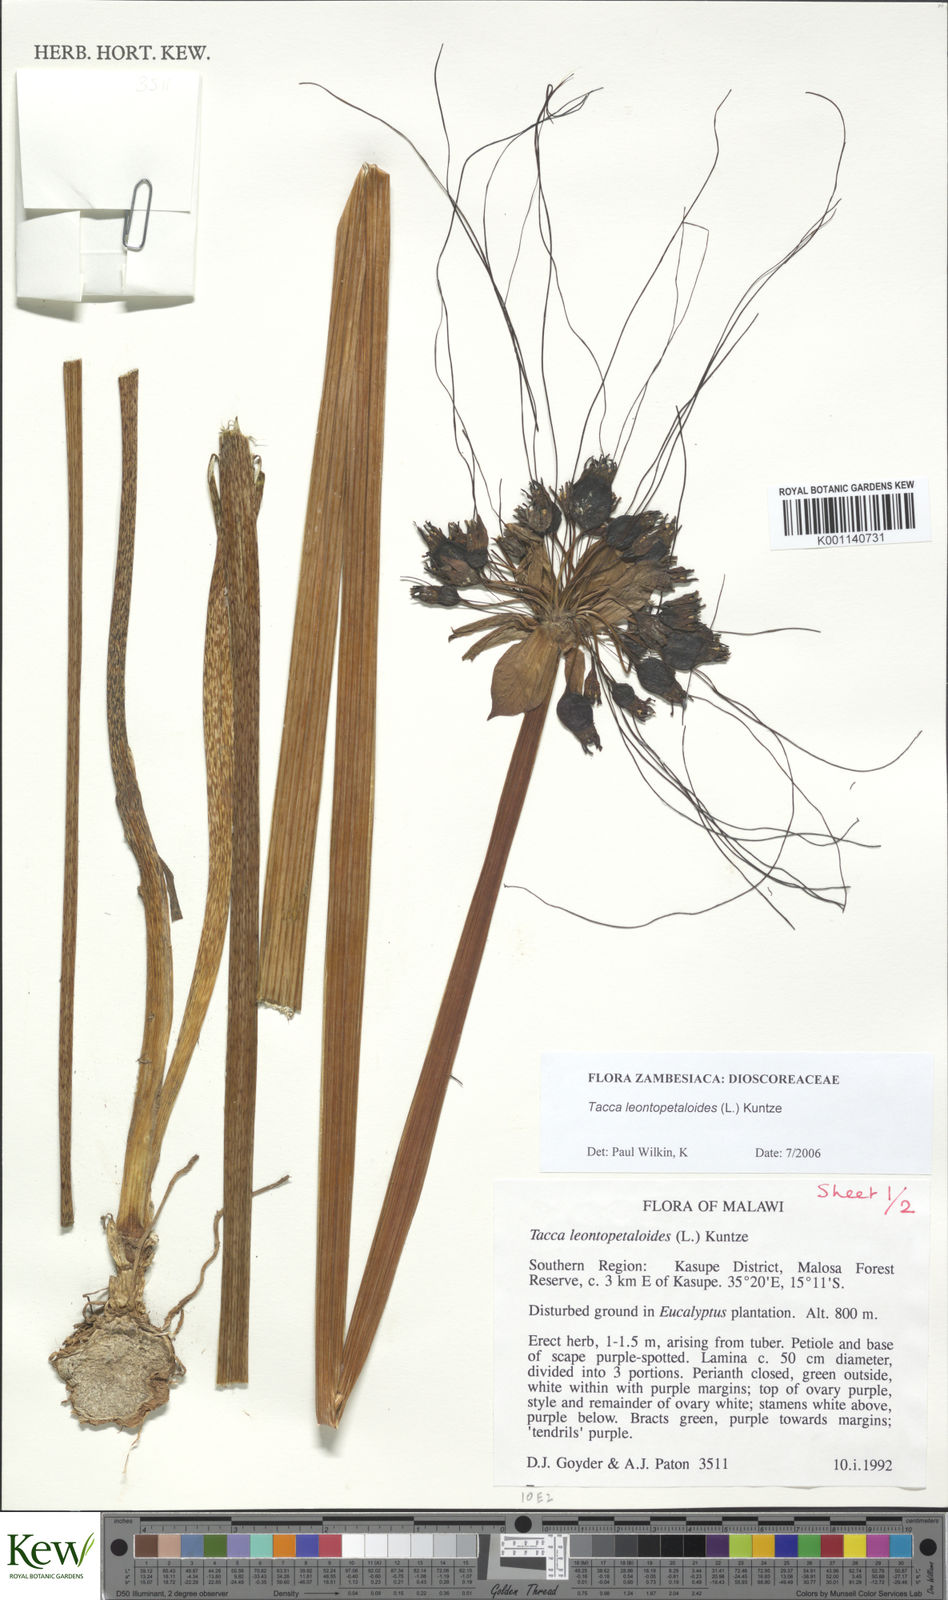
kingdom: Plantae
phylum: Tracheophyta
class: Liliopsida
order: Dioscoreales
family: Dioscoreaceae
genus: Tacca
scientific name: Tacca leontopetaloides
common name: Arrowroot
